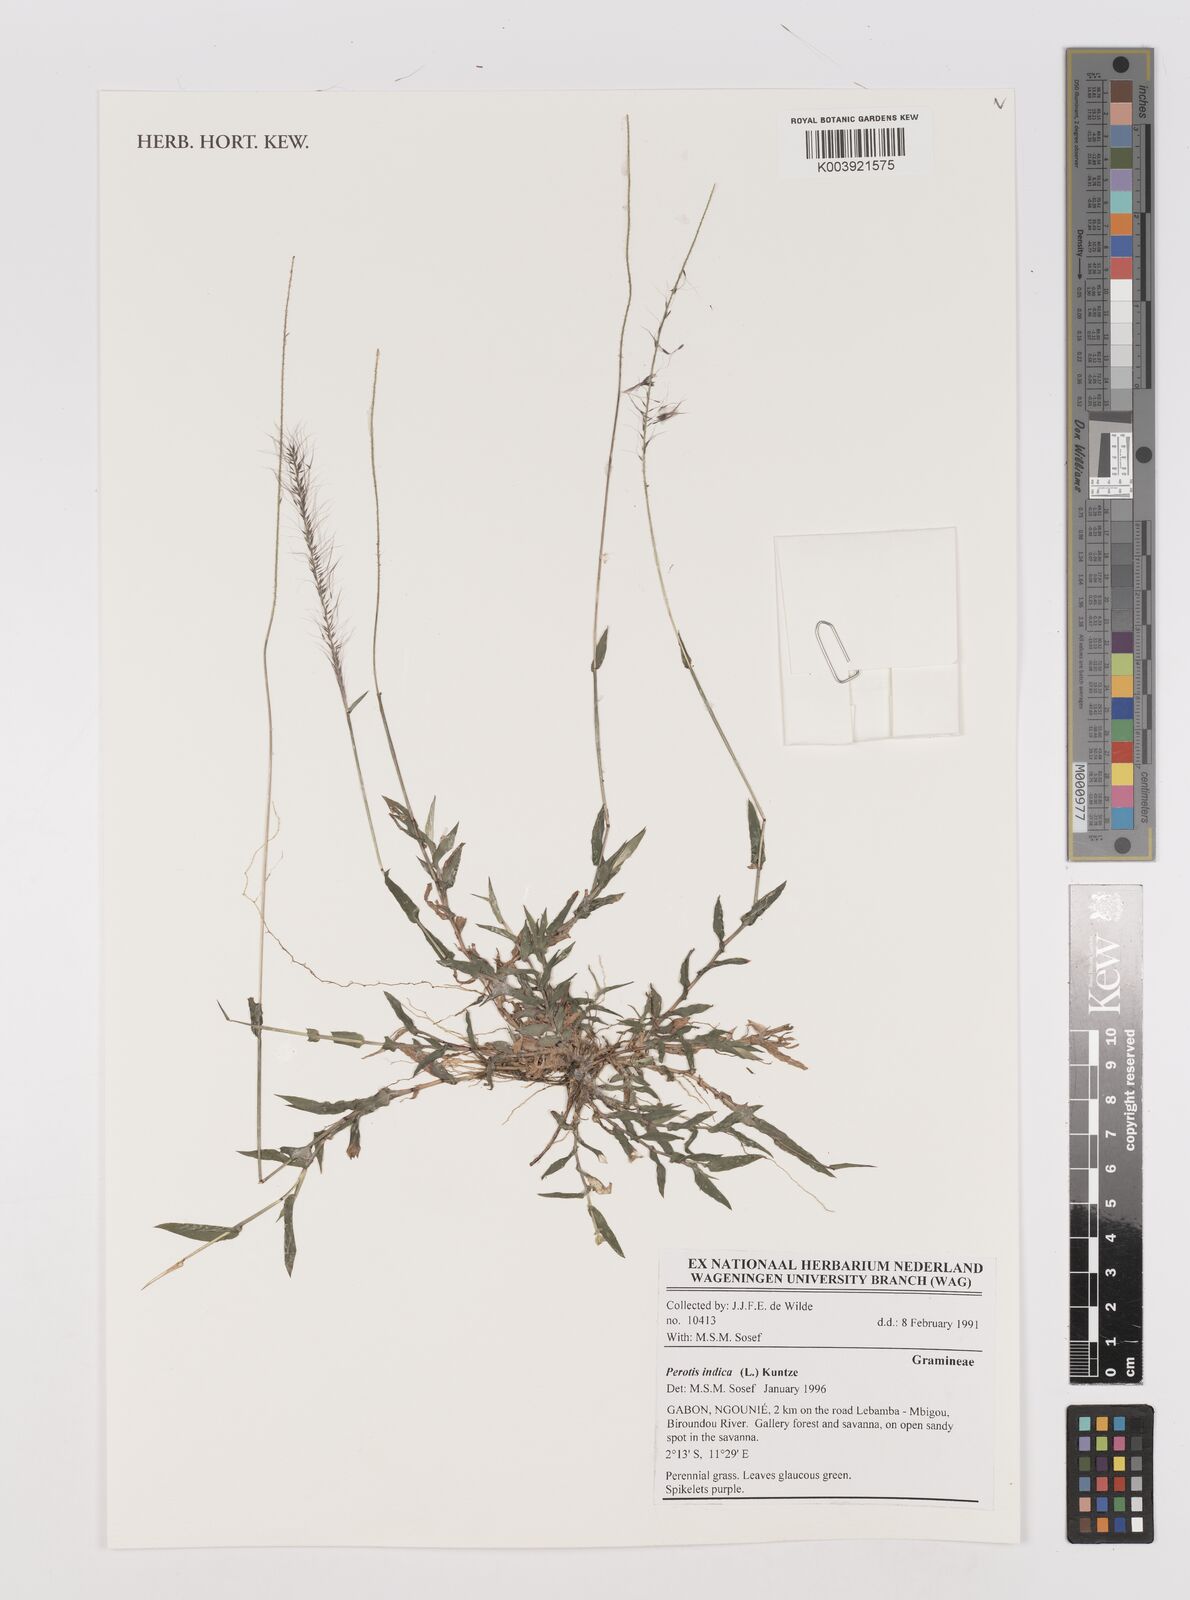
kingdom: Plantae
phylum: Tracheophyta
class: Liliopsida
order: Poales
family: Poaceae
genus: Perotis
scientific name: Perotis indica
